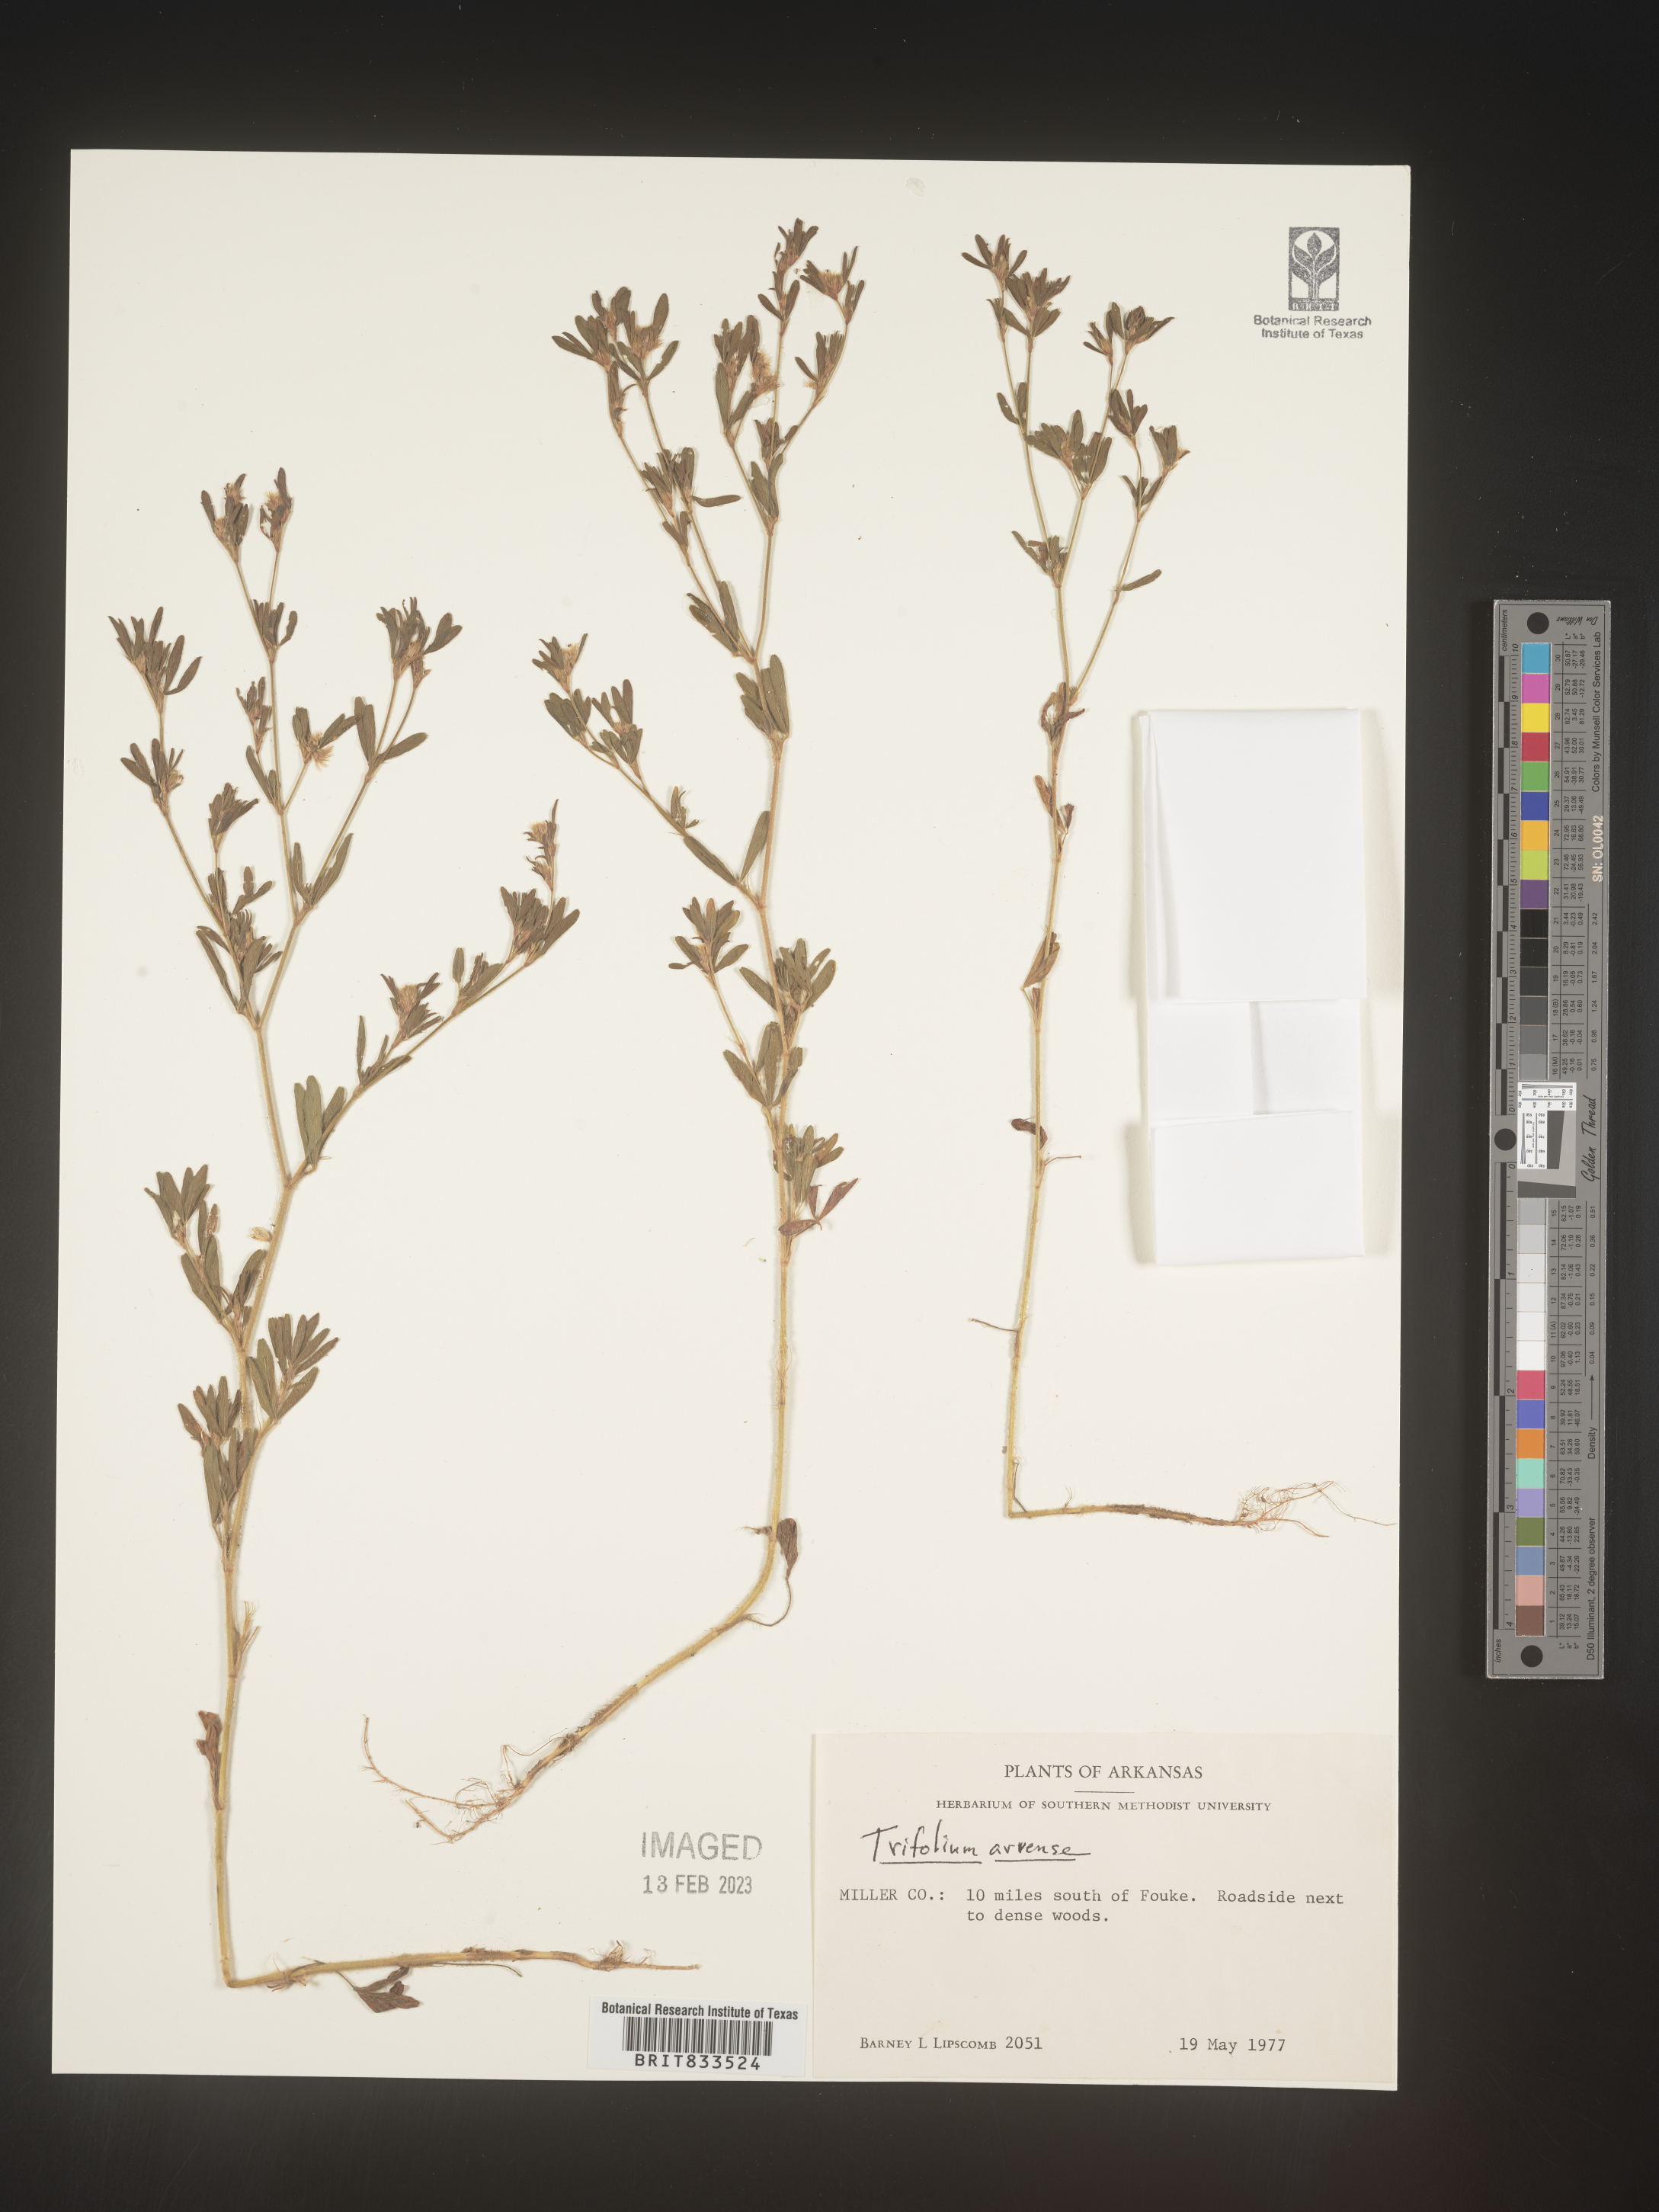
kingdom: Plantae
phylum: Tracheophyta
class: Magnoliopsida
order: Fabales
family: Fabaceae
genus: Trifolium
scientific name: Trifolium arvense
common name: Hare's-foot clover
